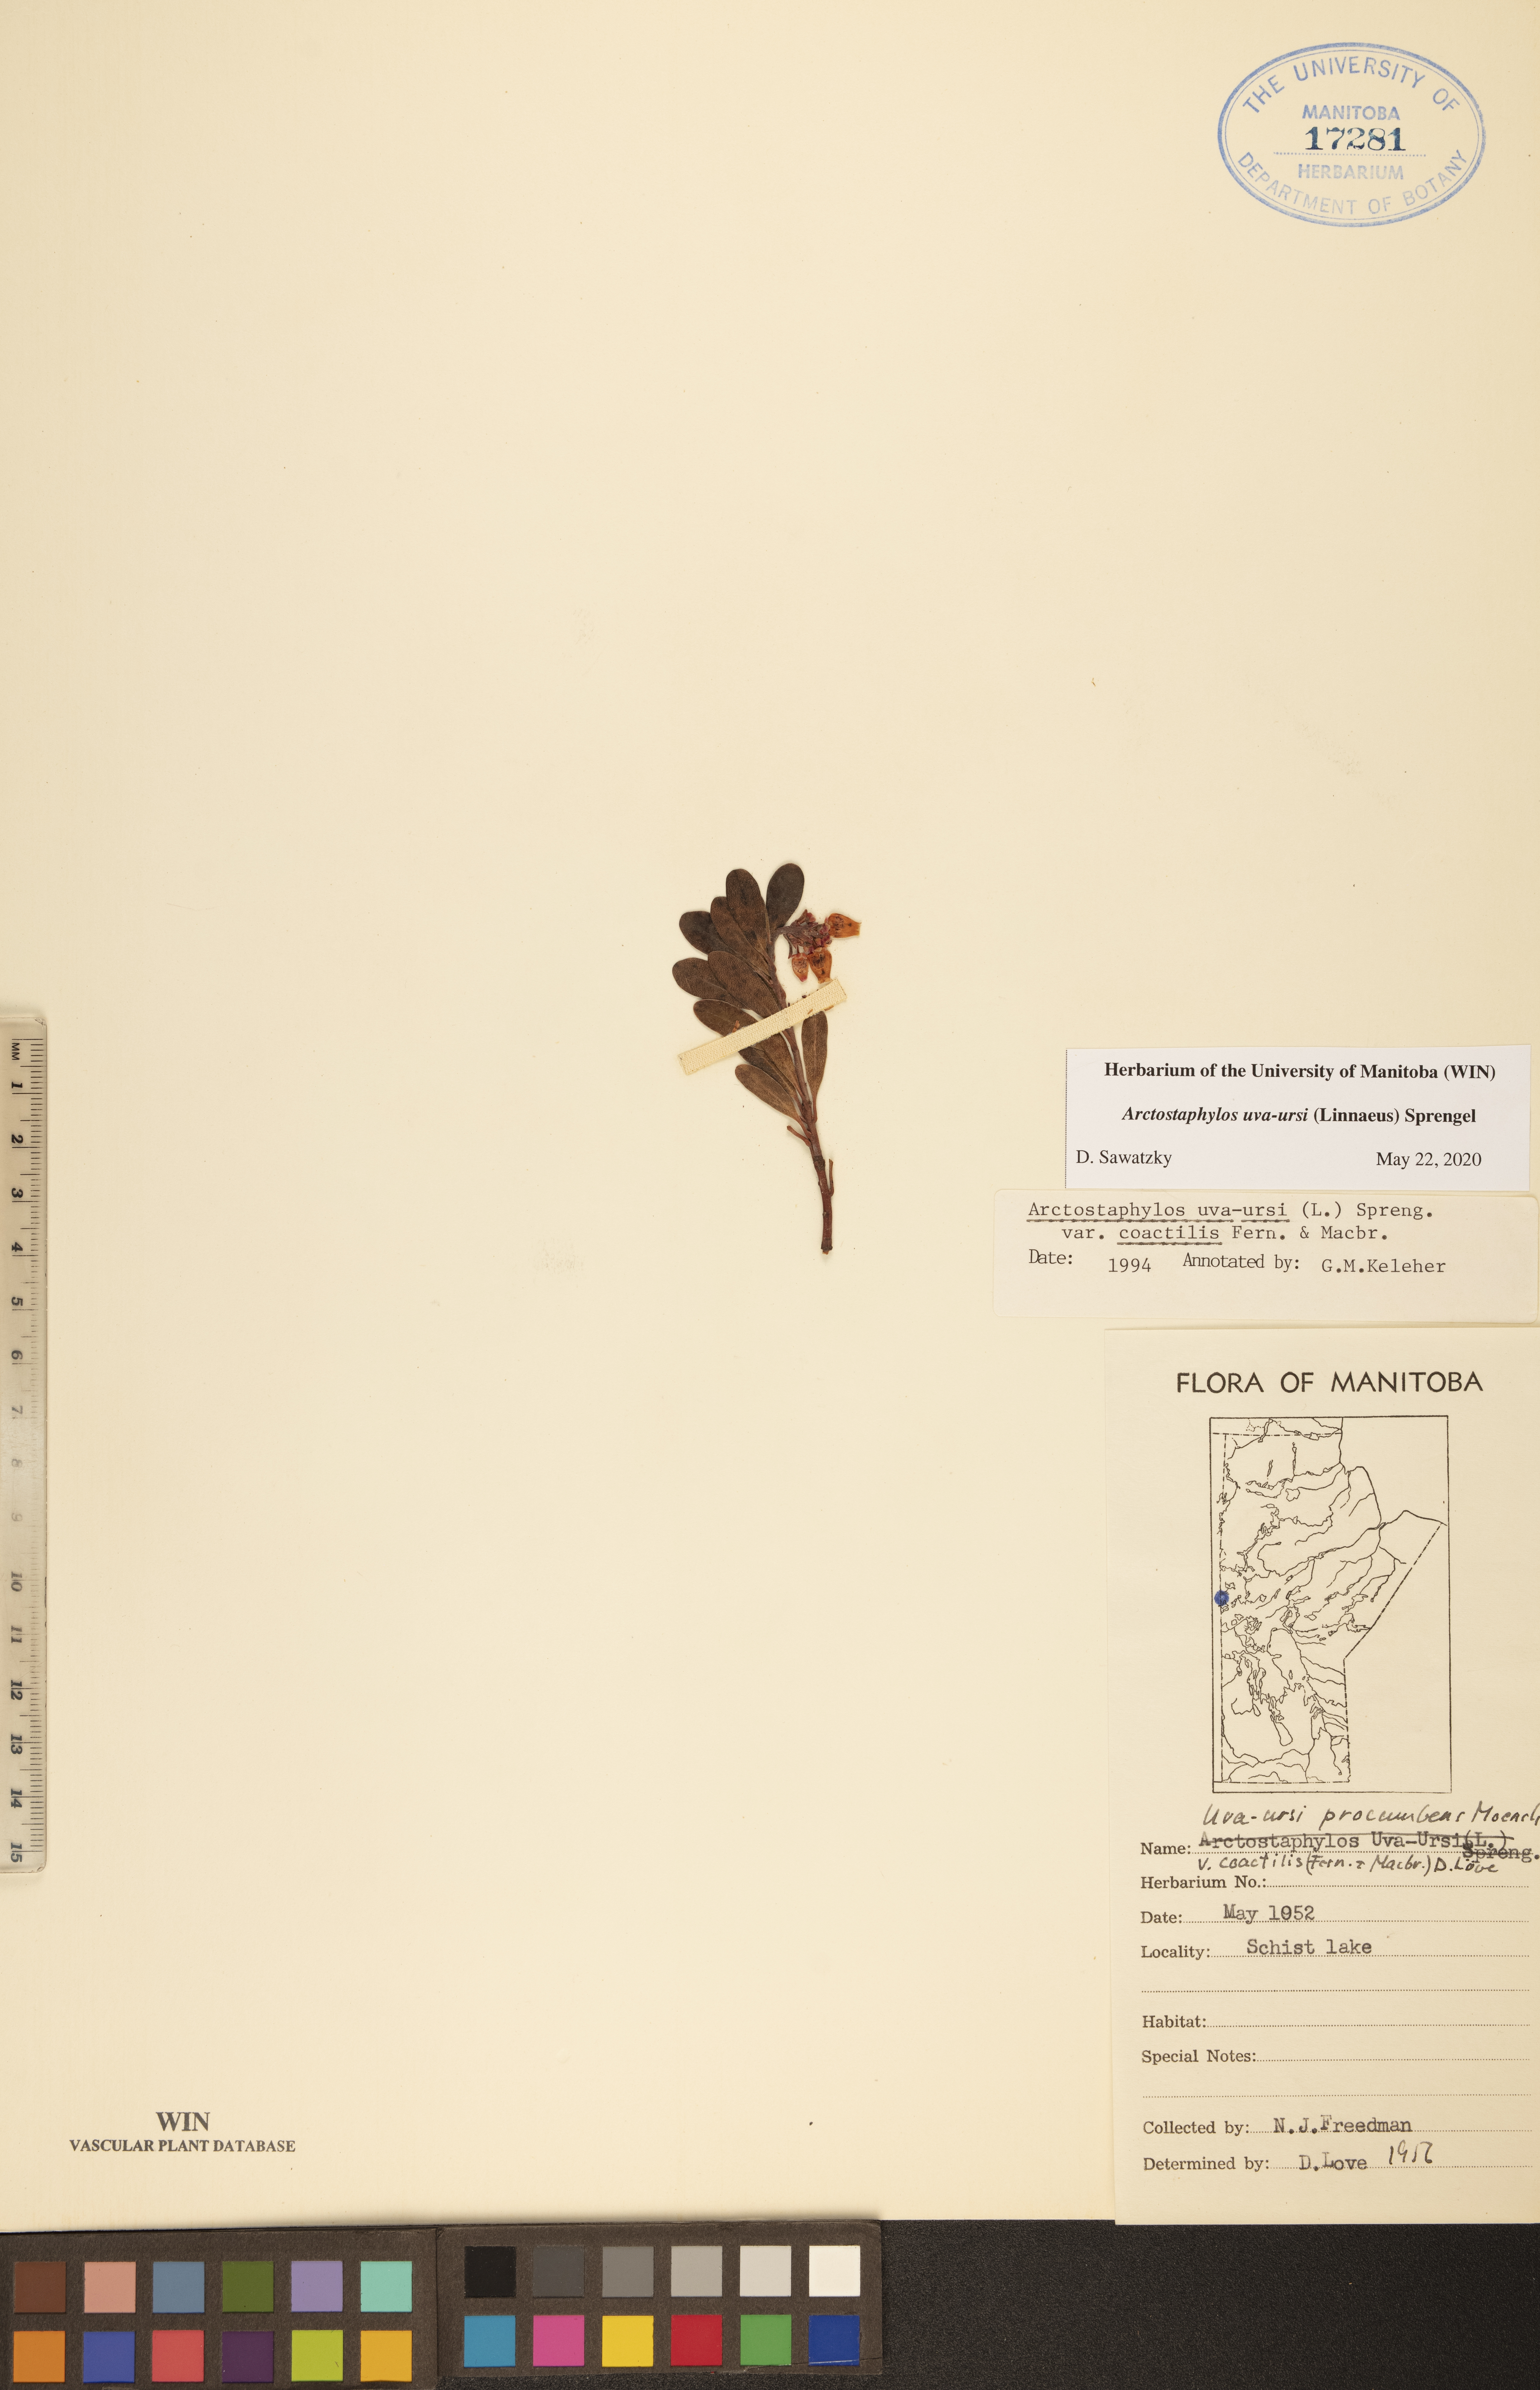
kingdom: Plantae
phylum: Tracheophyta
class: Magnoliopsida
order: Ericales
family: Ericaceae
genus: Arctostaphylos
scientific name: Arctostaphylos uva-ursi
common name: Bearberry
